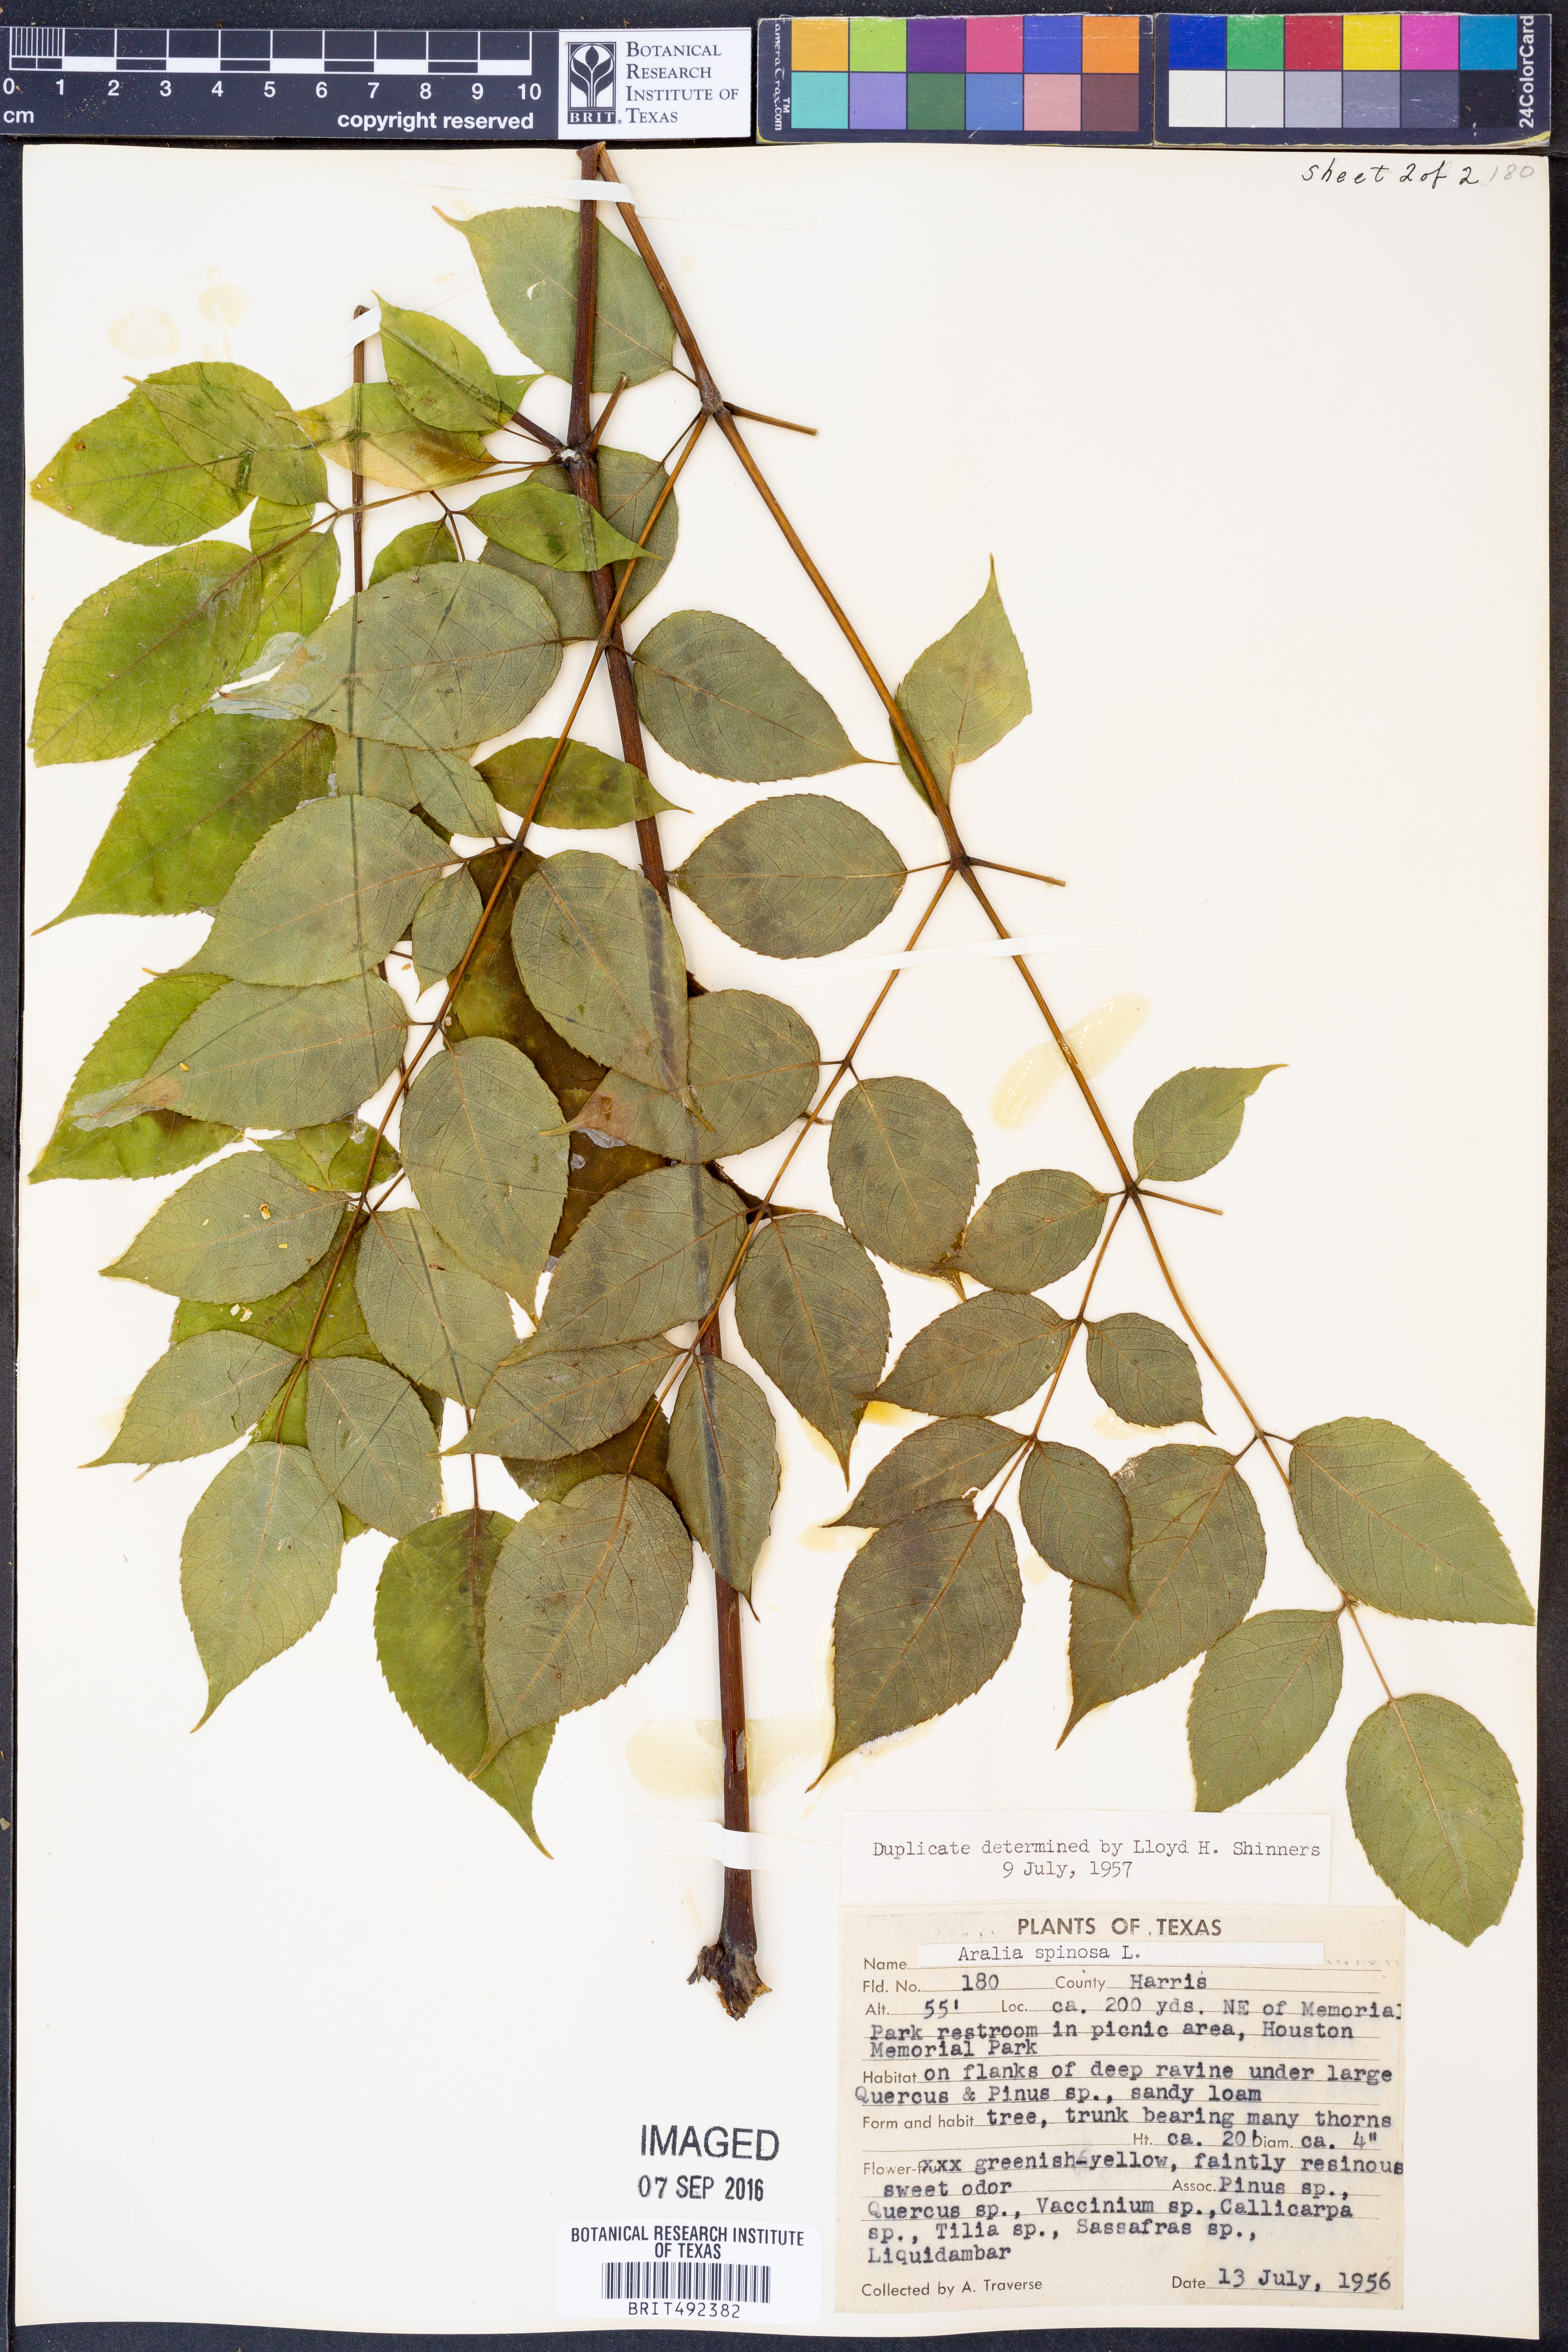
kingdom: Plantae
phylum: Tracheophyta
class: Magnoliopsida
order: Apiales
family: Araliaceae
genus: Aralia
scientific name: Aralia spinosa
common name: Hercules'-club
